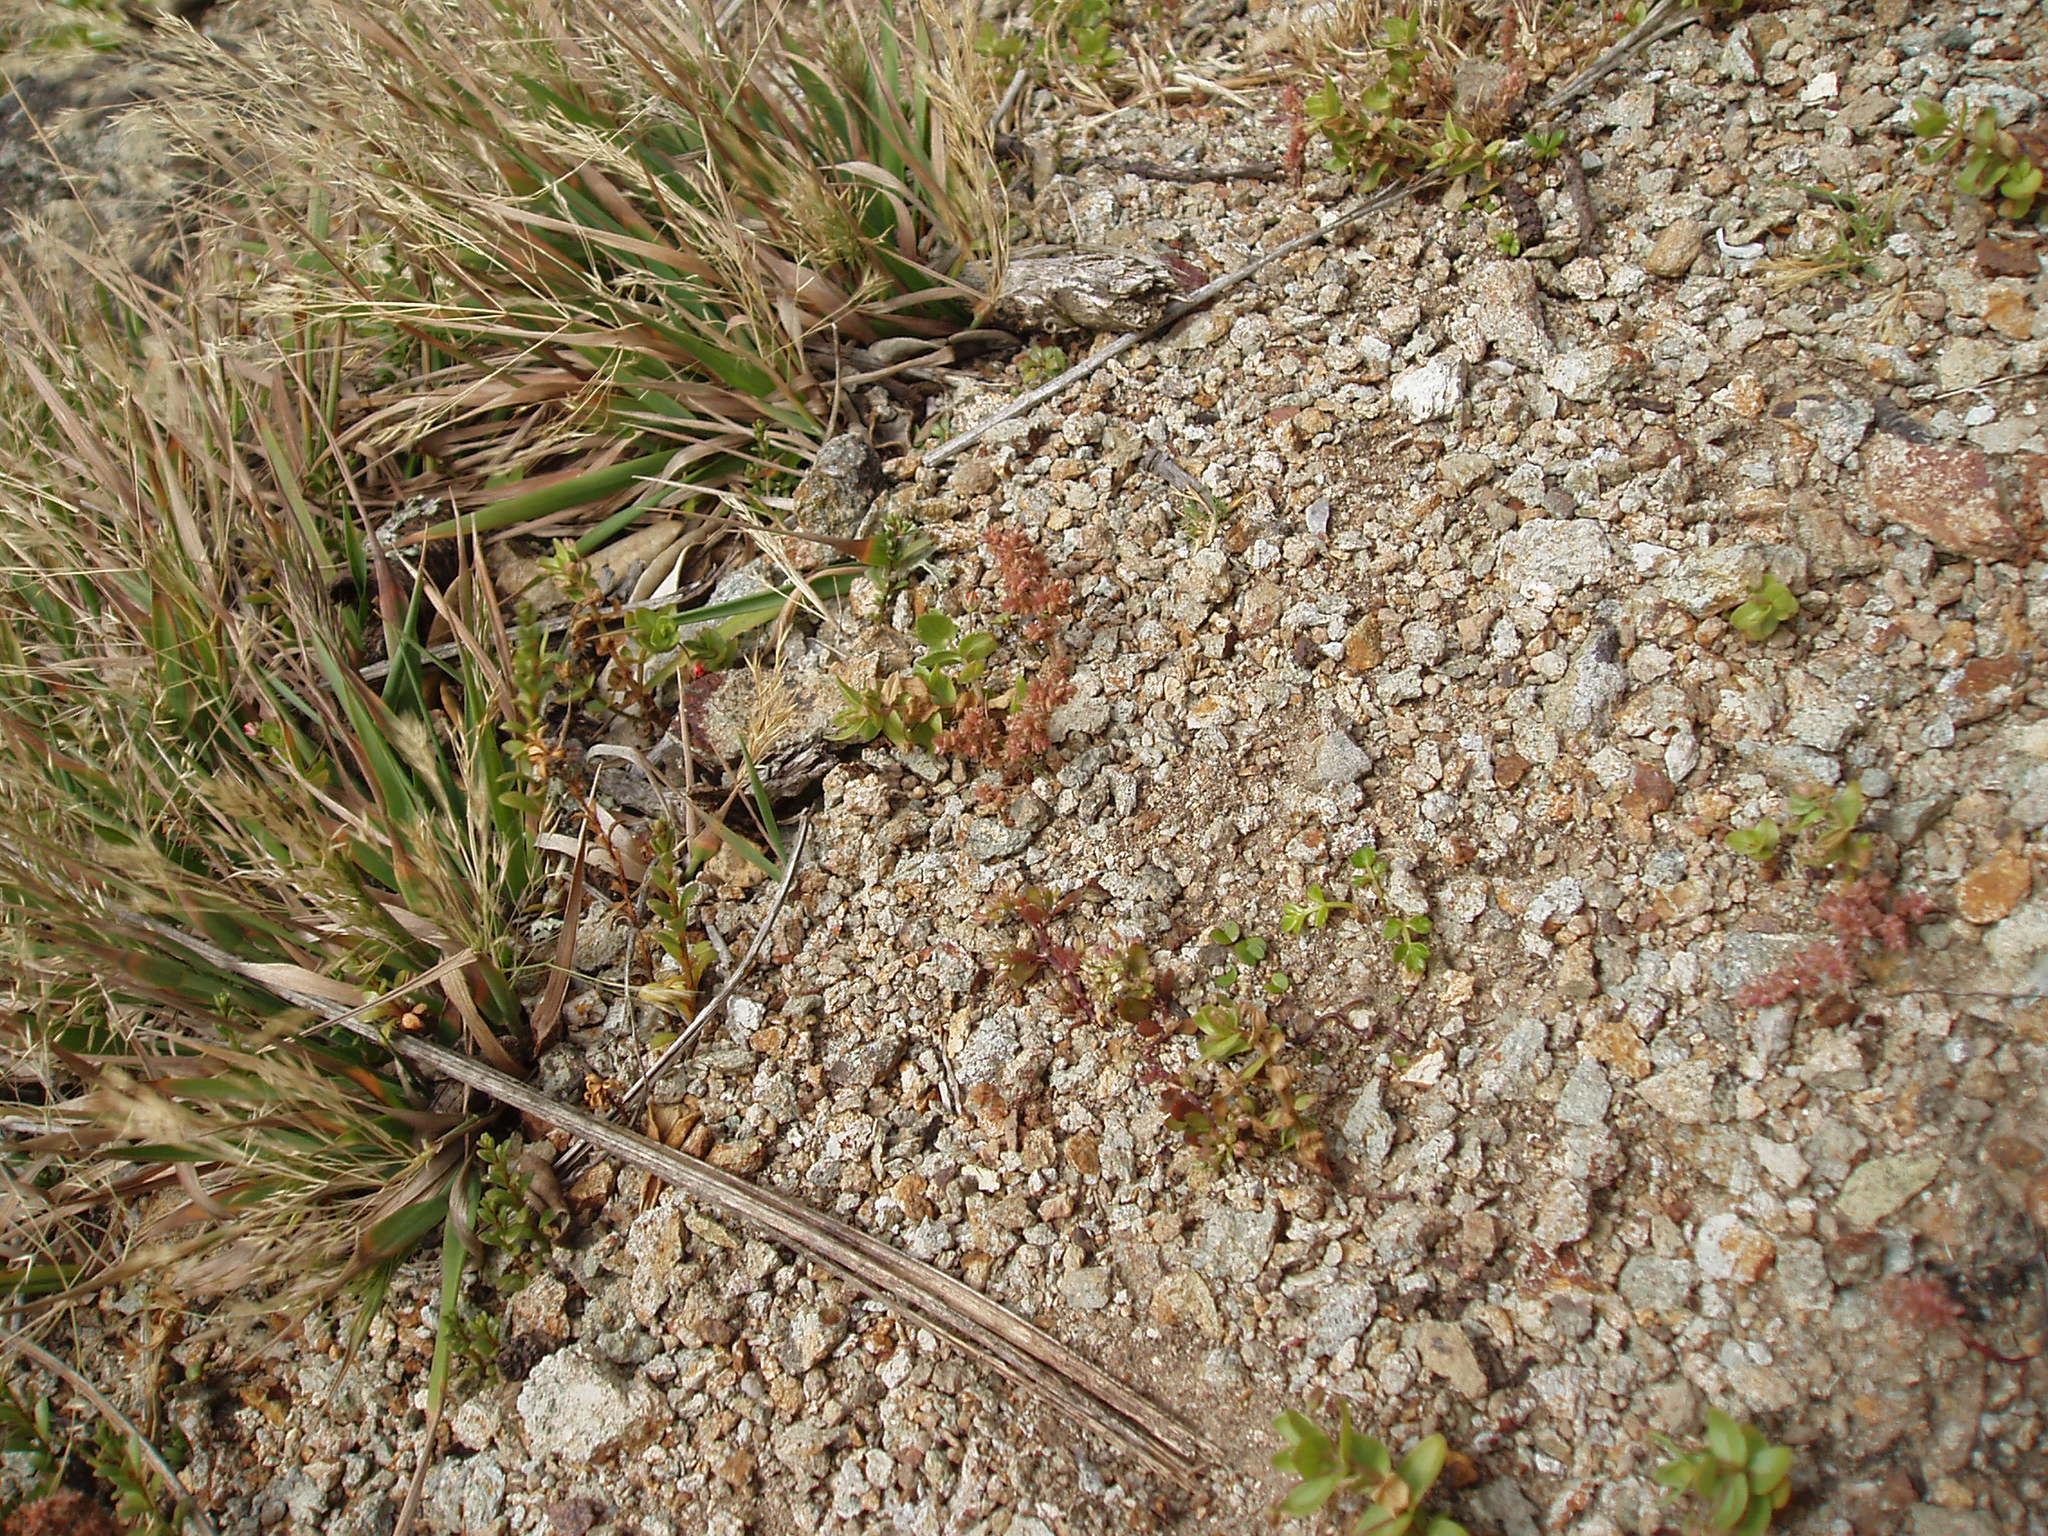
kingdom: Plantae
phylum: Tracheophyta
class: Magnoliopsida
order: Saxifragales
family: Crassulaceae
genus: Crassula
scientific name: Crassula sieberiana
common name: Siberian pygmyweed
